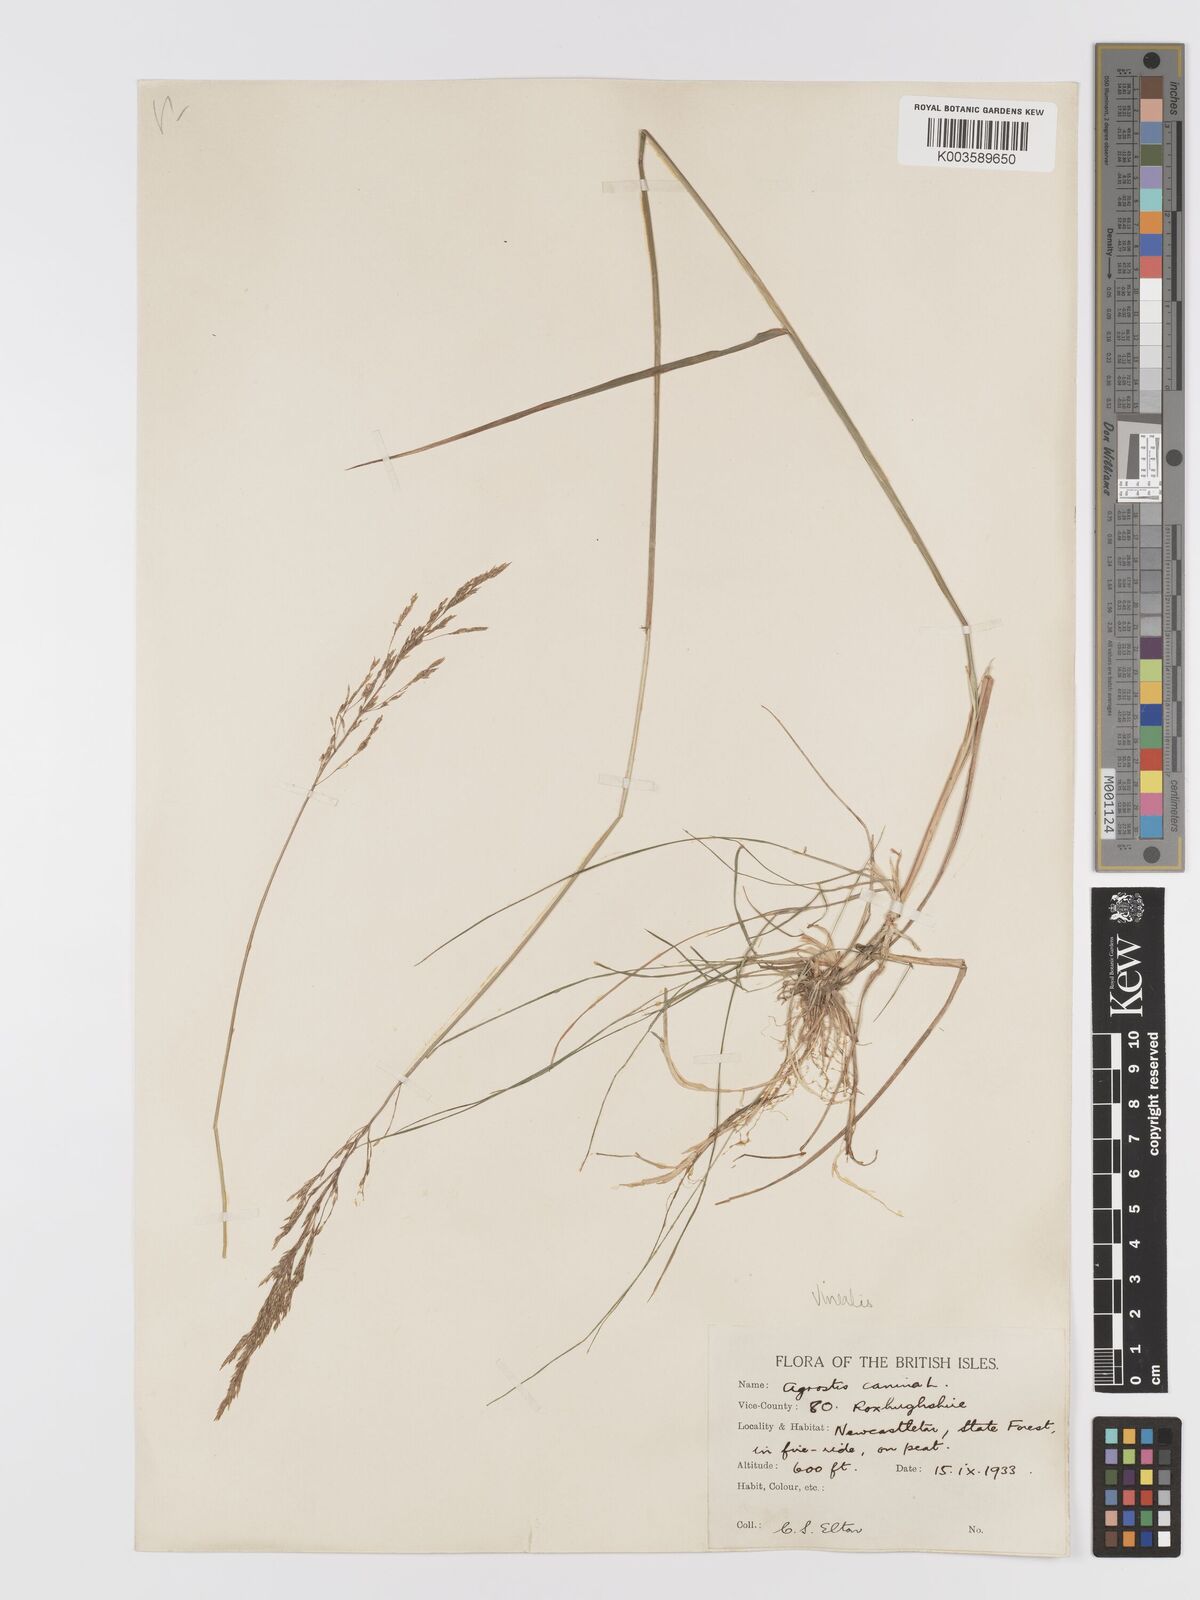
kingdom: Plantae
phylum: Tracheophyta
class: Liliopsida
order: Poales
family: Poaceae
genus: Agrostis
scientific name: Agrostis
